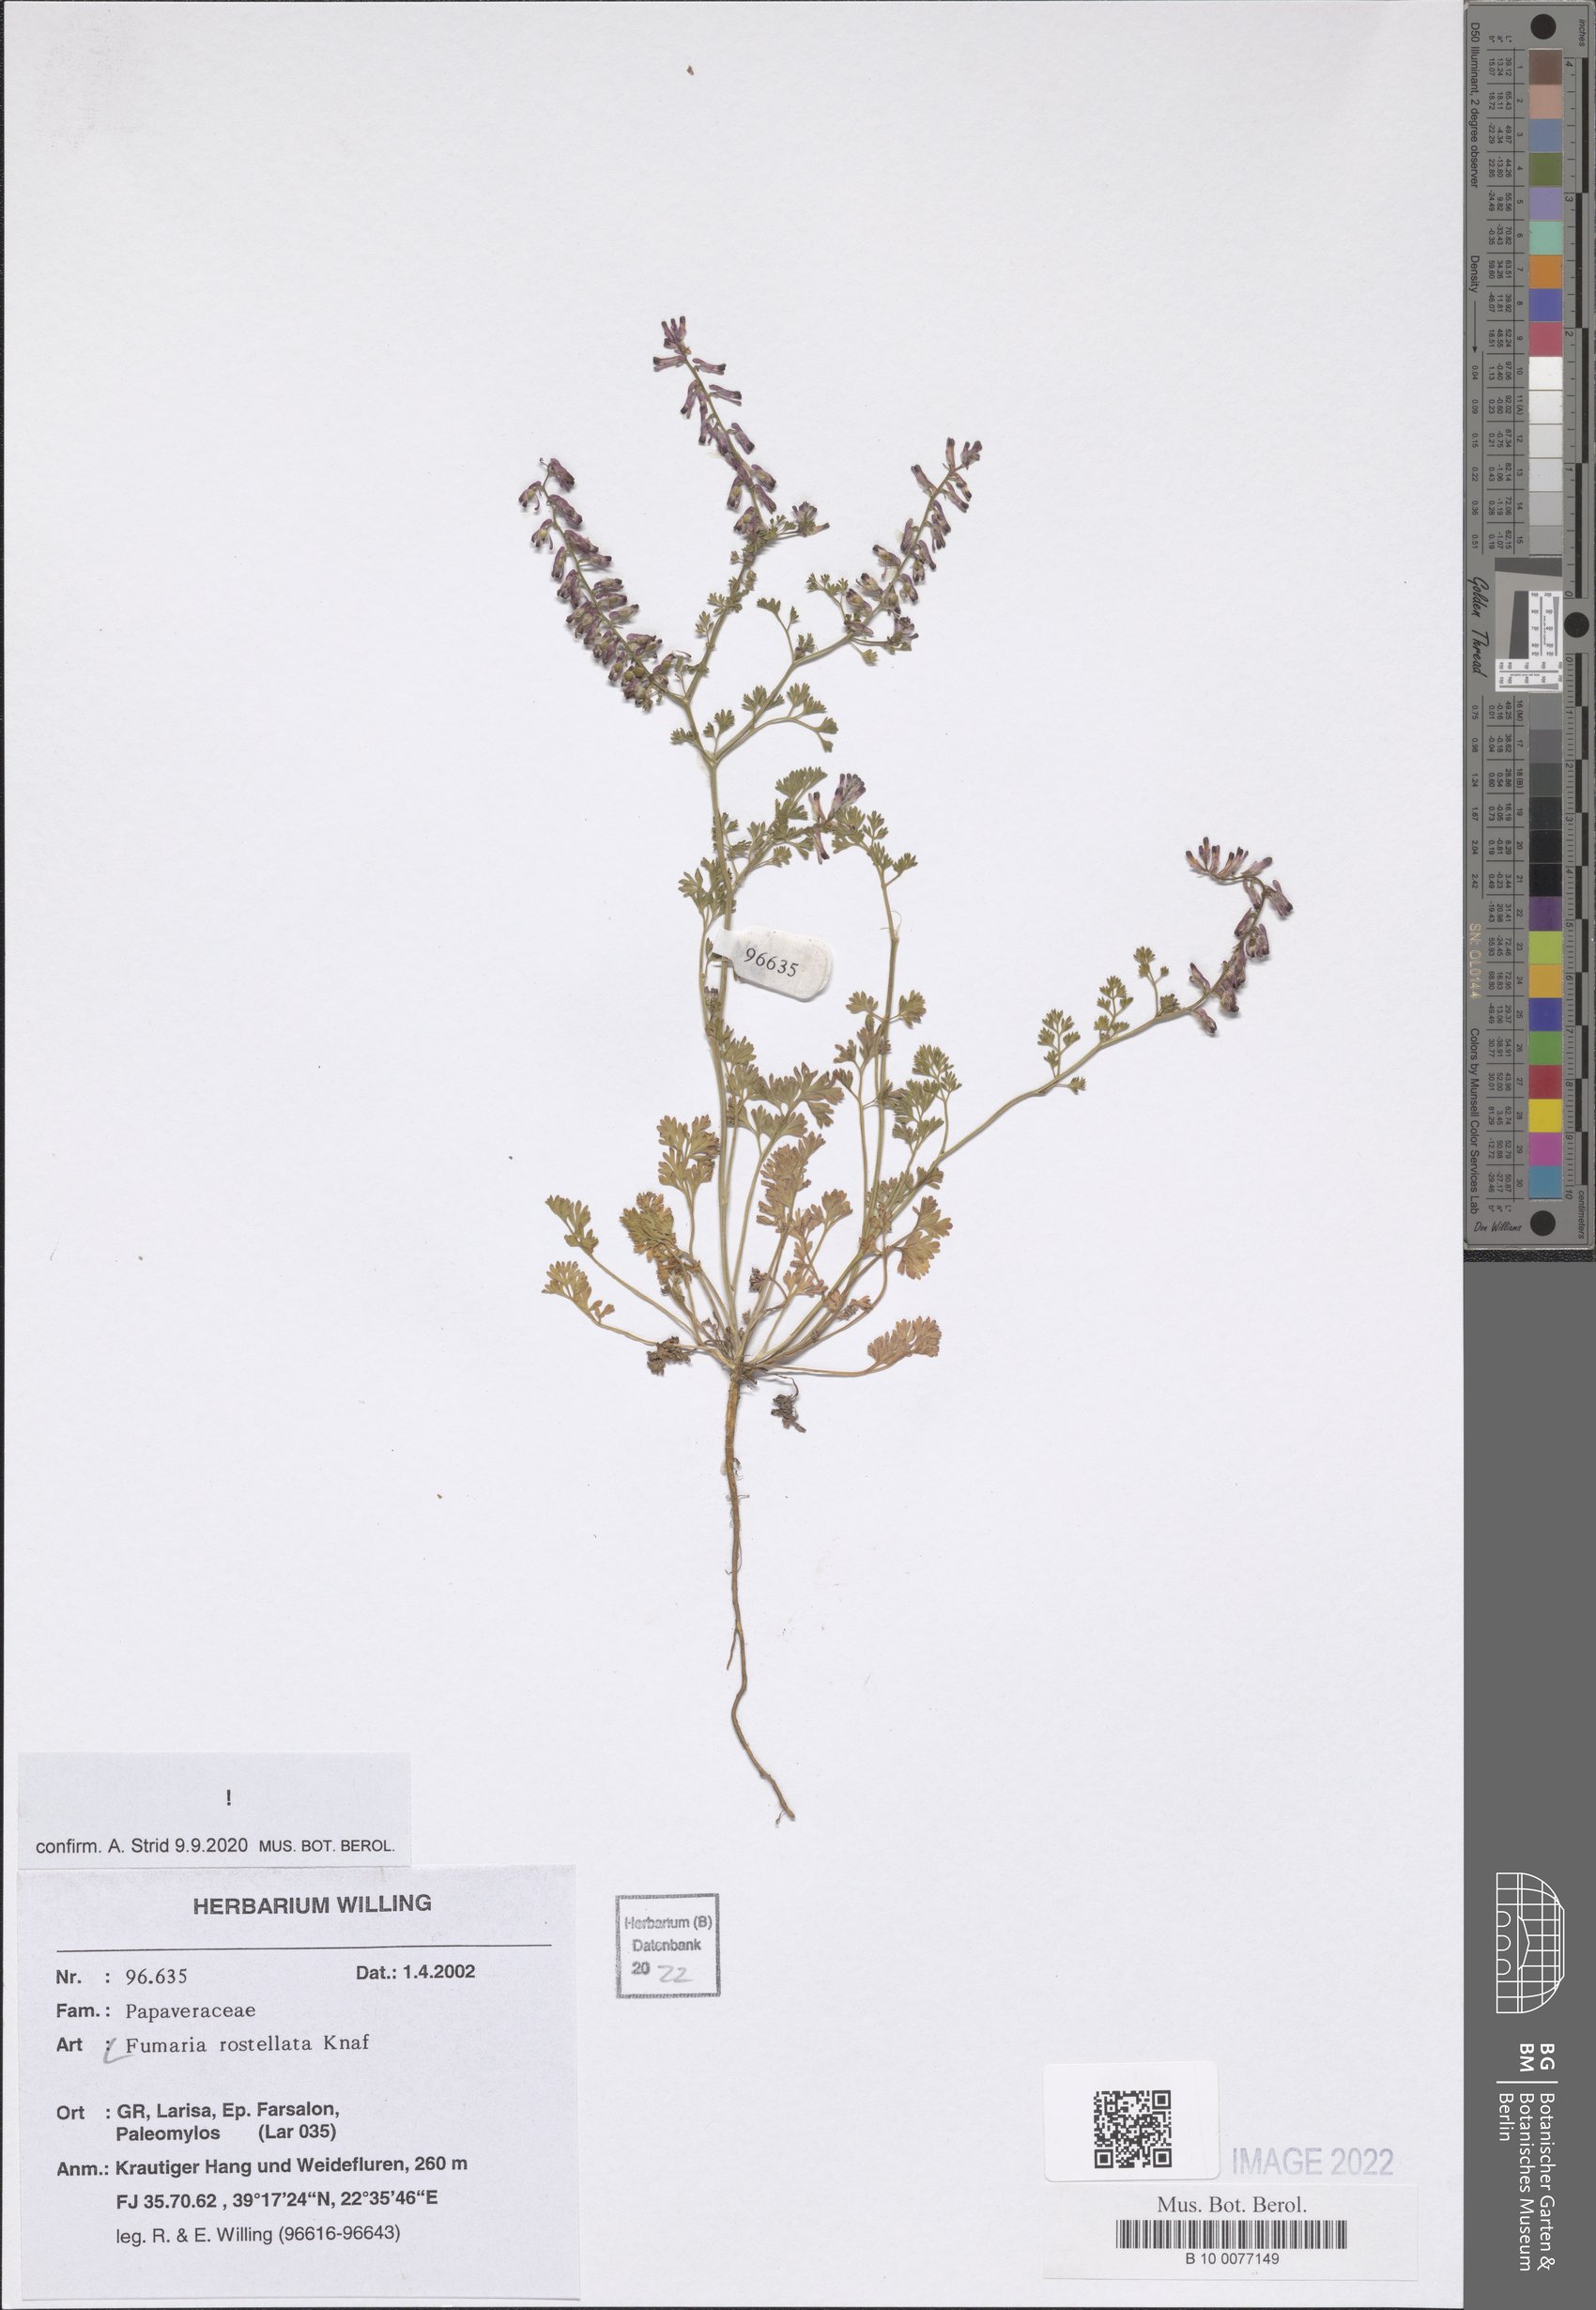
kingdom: Plantae
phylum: Tracheophyta
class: Magnoliopsida
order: Ranunculales
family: Papaveraceae
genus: Fumaria
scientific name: Fumaria rostellata
